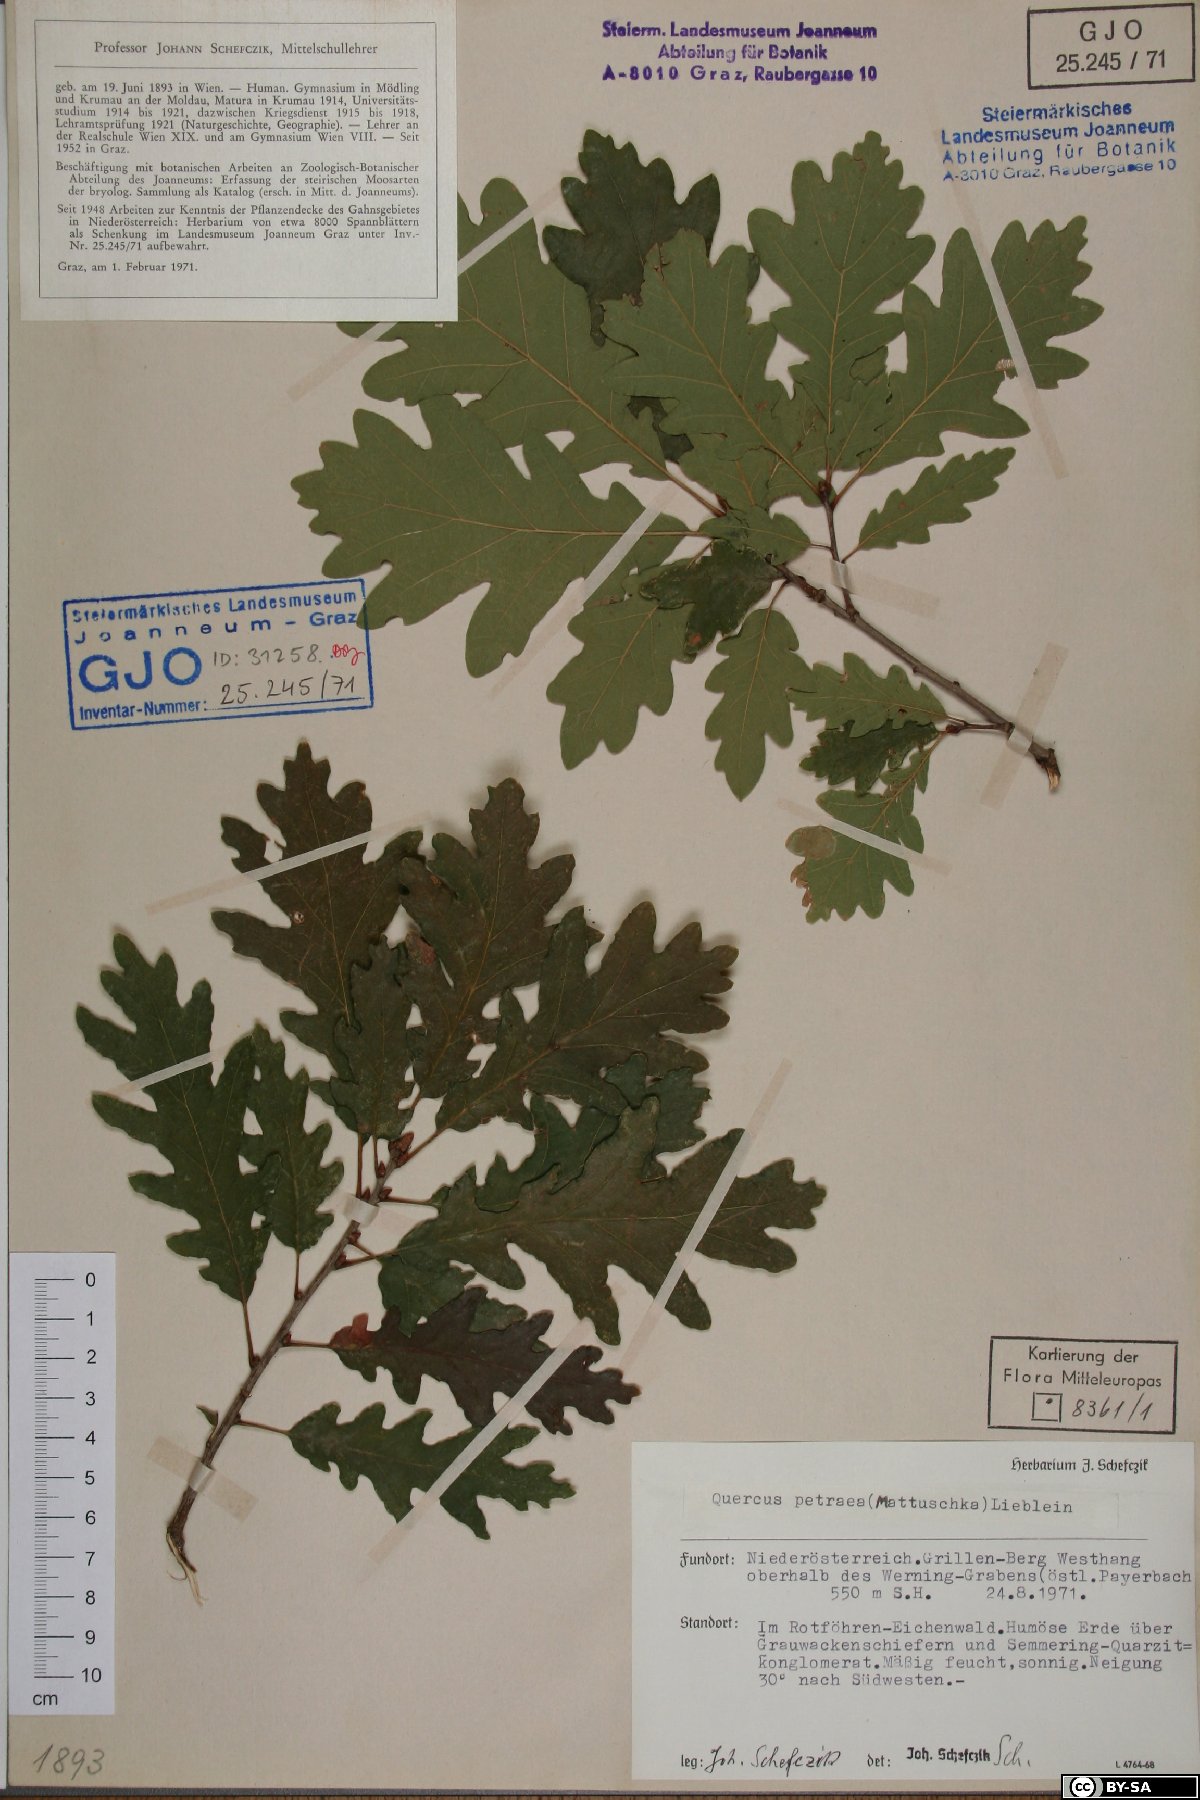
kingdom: Plantae
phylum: Tracheophyta
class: Magnoliopsida
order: Fagales
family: Fagaceae
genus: Quercus
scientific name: Quercus petraea
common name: Sessile oak
